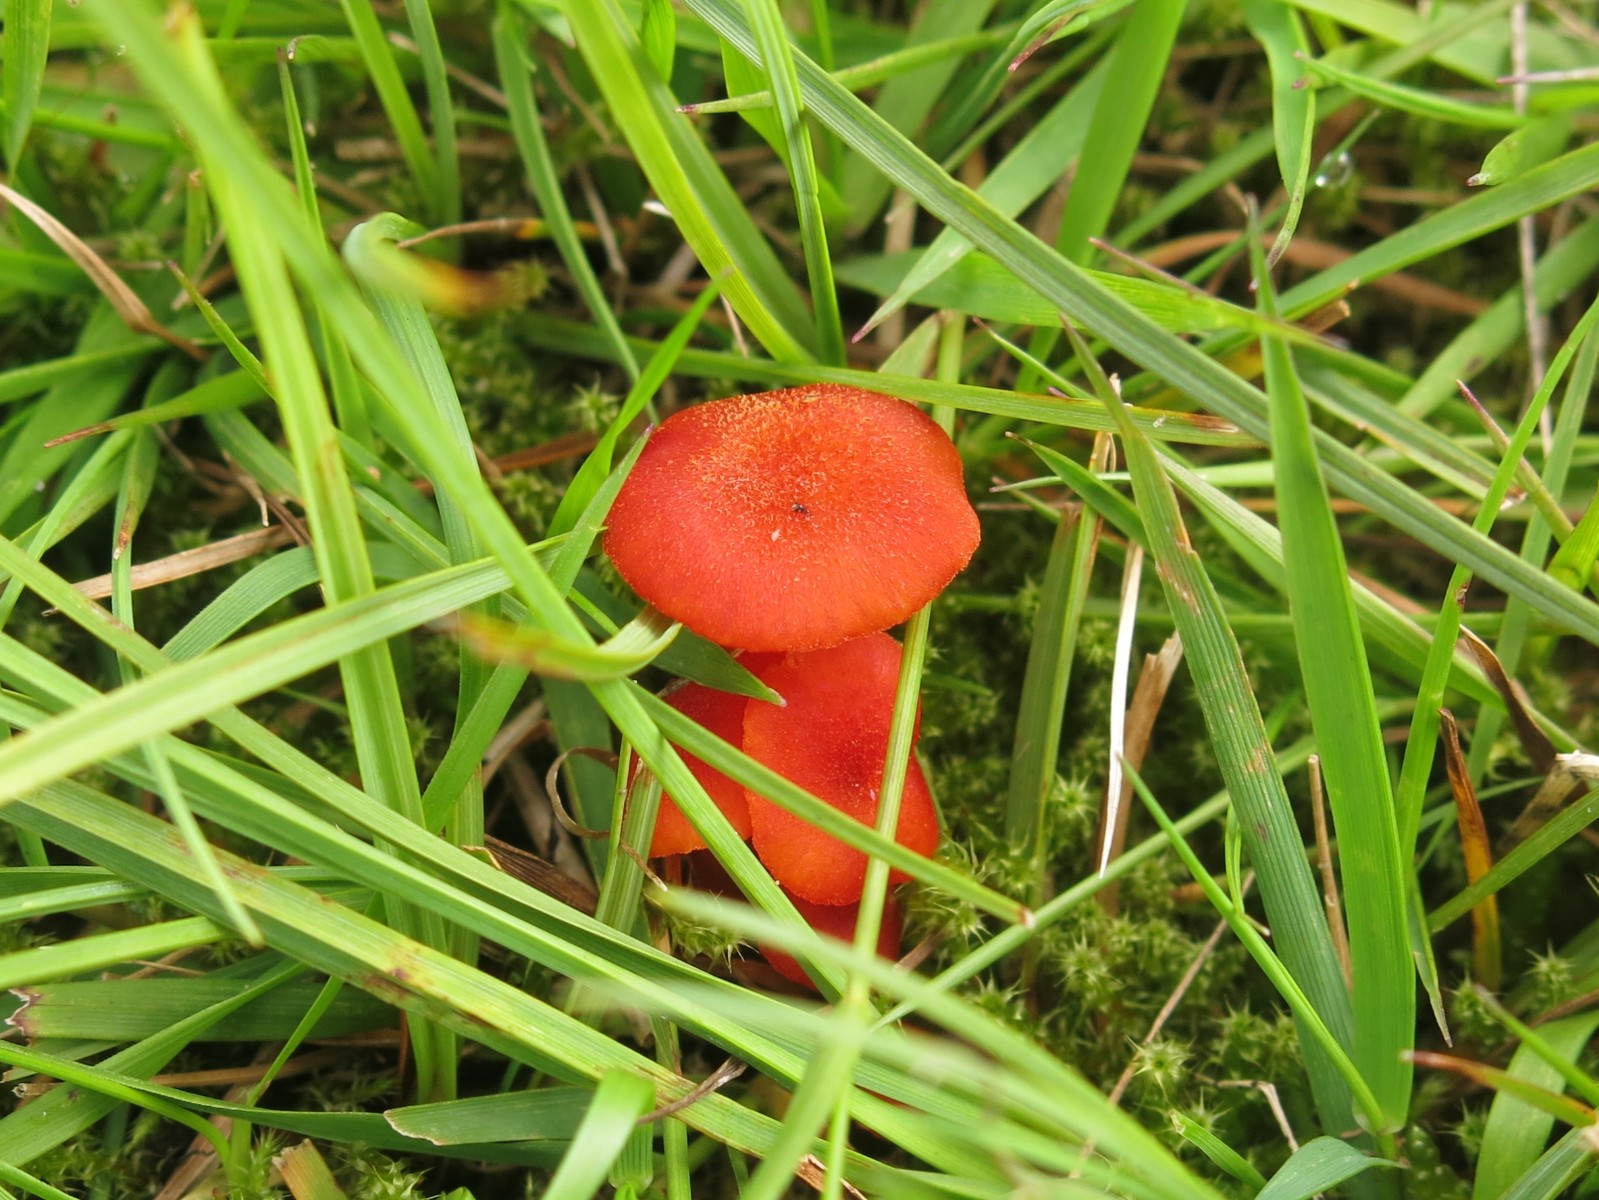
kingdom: Fungi
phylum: Basidiomycota
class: Agaricomycetes
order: Agaricales
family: Hygrophoraceae
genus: Hygrocybe
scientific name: Hygrocybe miniata
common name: mønje-vokshat
